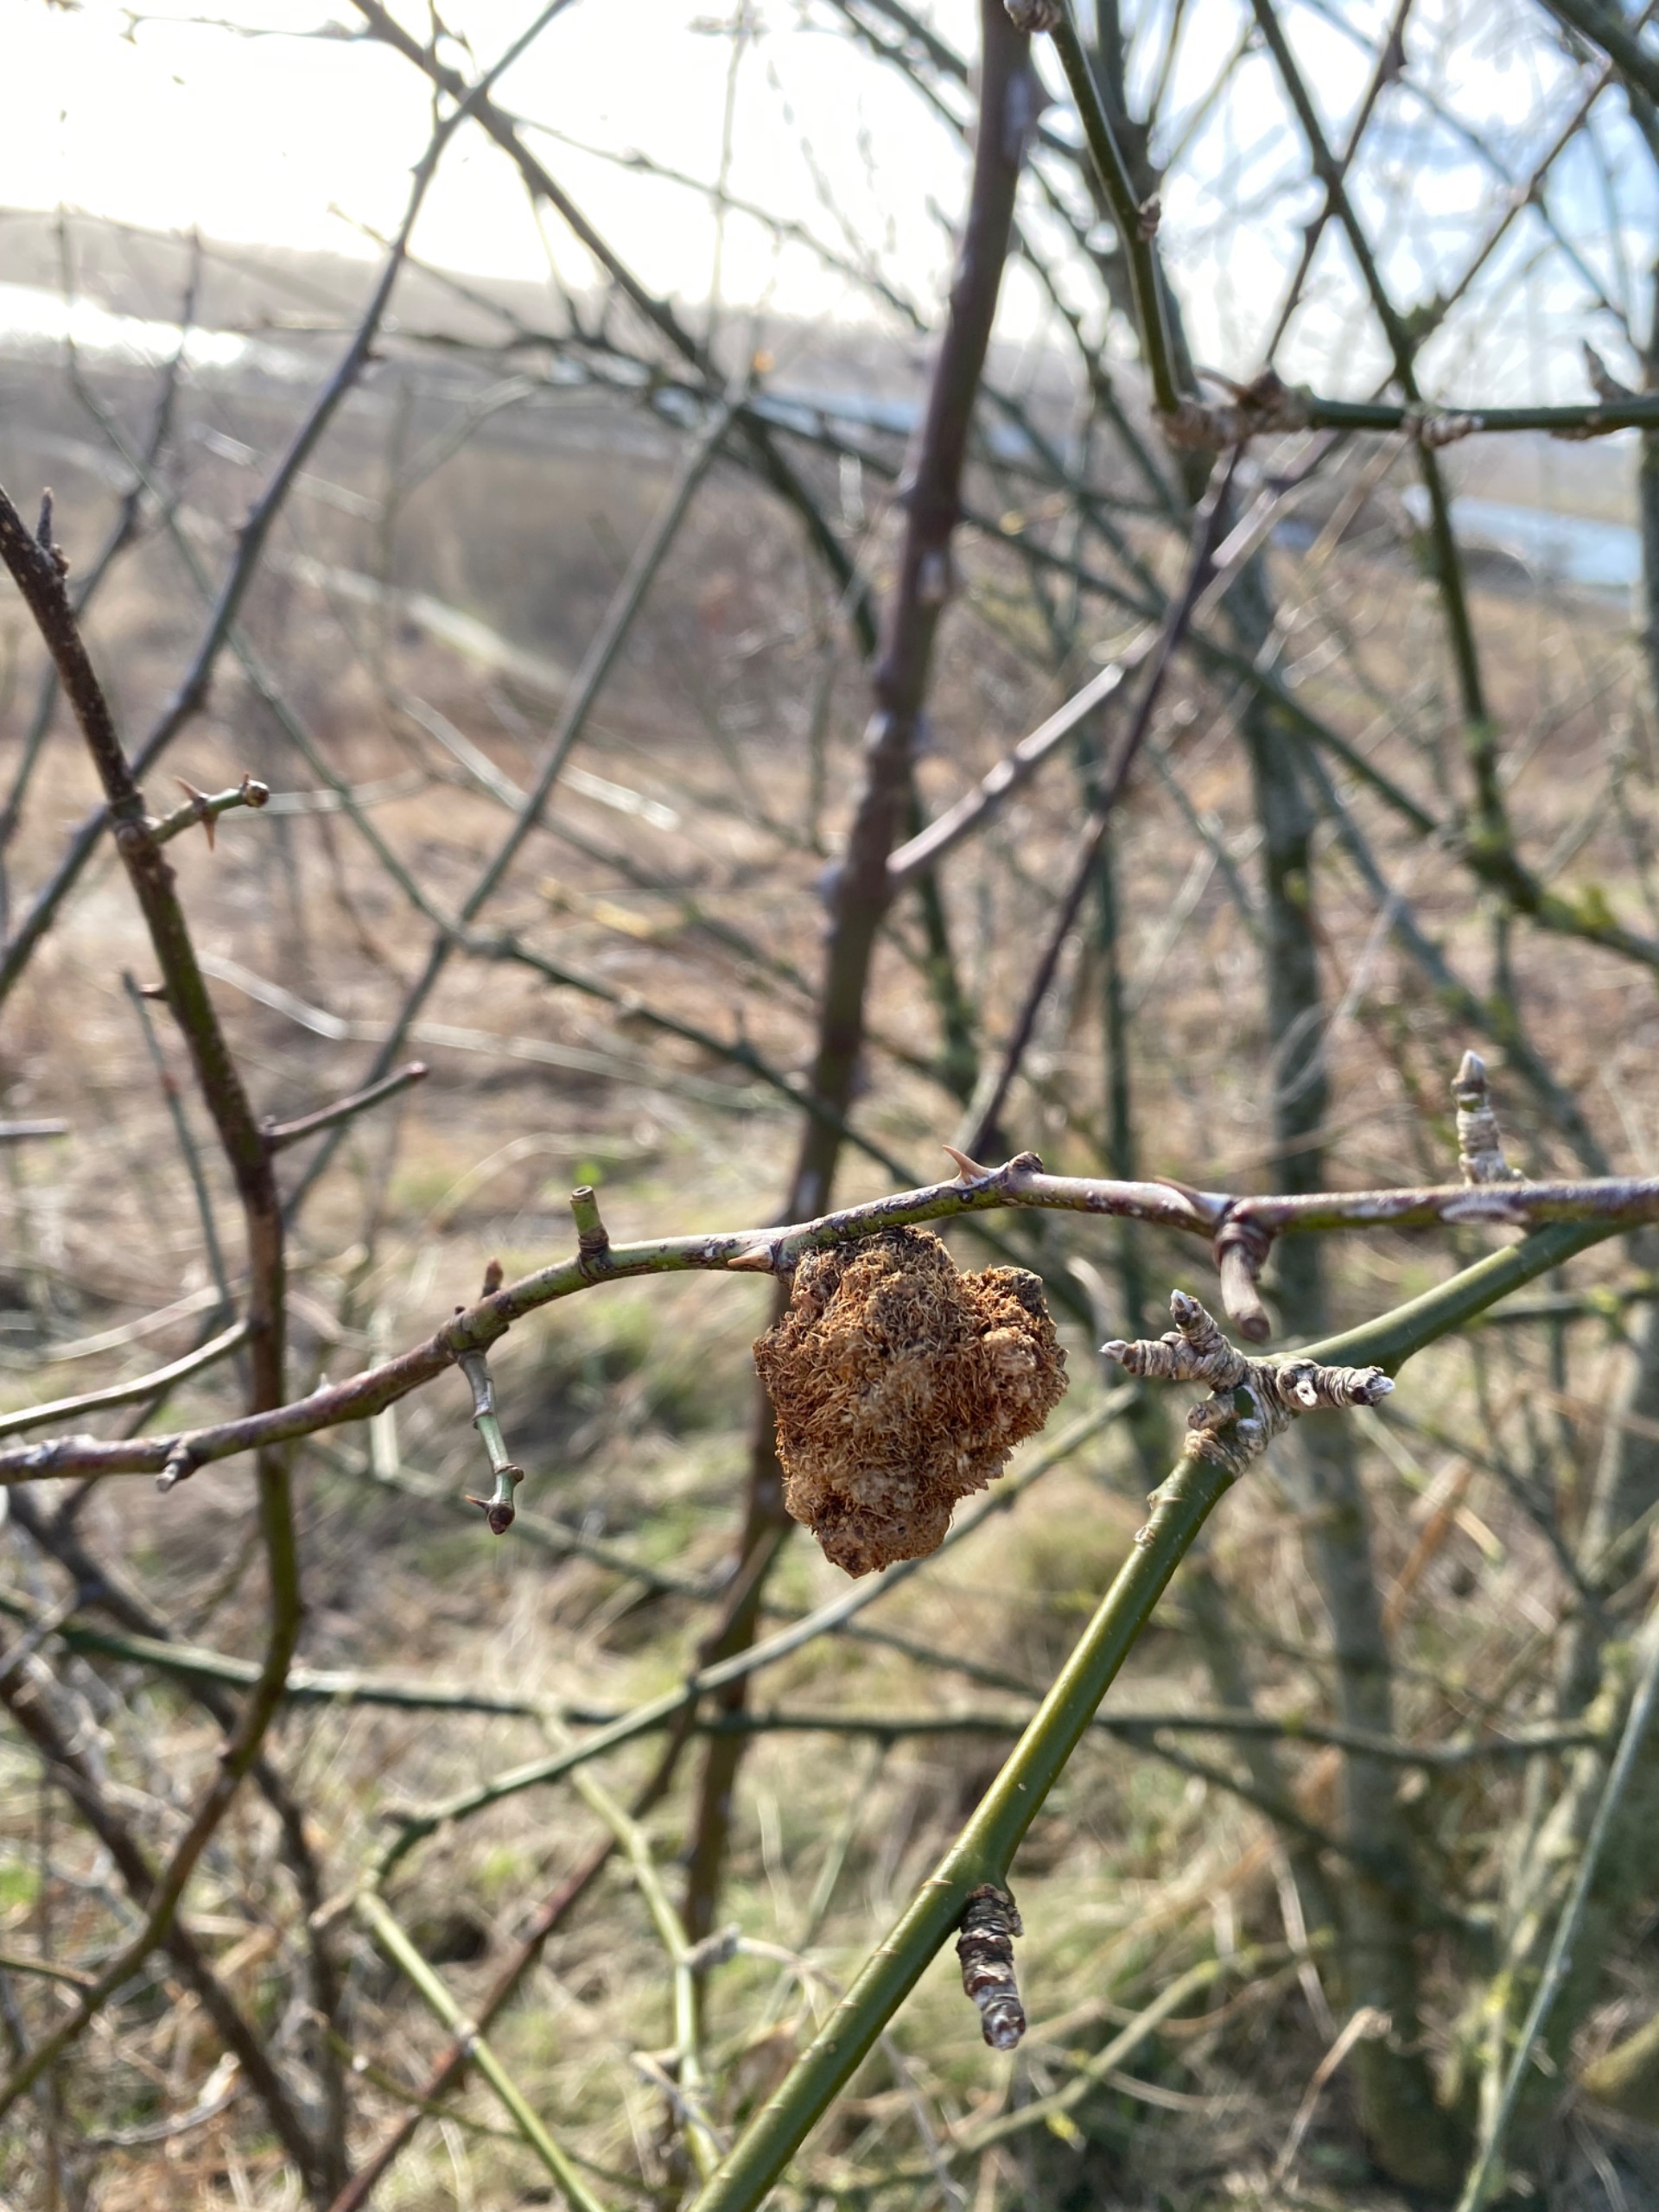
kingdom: Animalia
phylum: Arthropoda
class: Insecta
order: Hymenoptera
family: Cynipidae
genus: Diplolepis
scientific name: Diplolepis rosae
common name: Bedeguargalhveps
